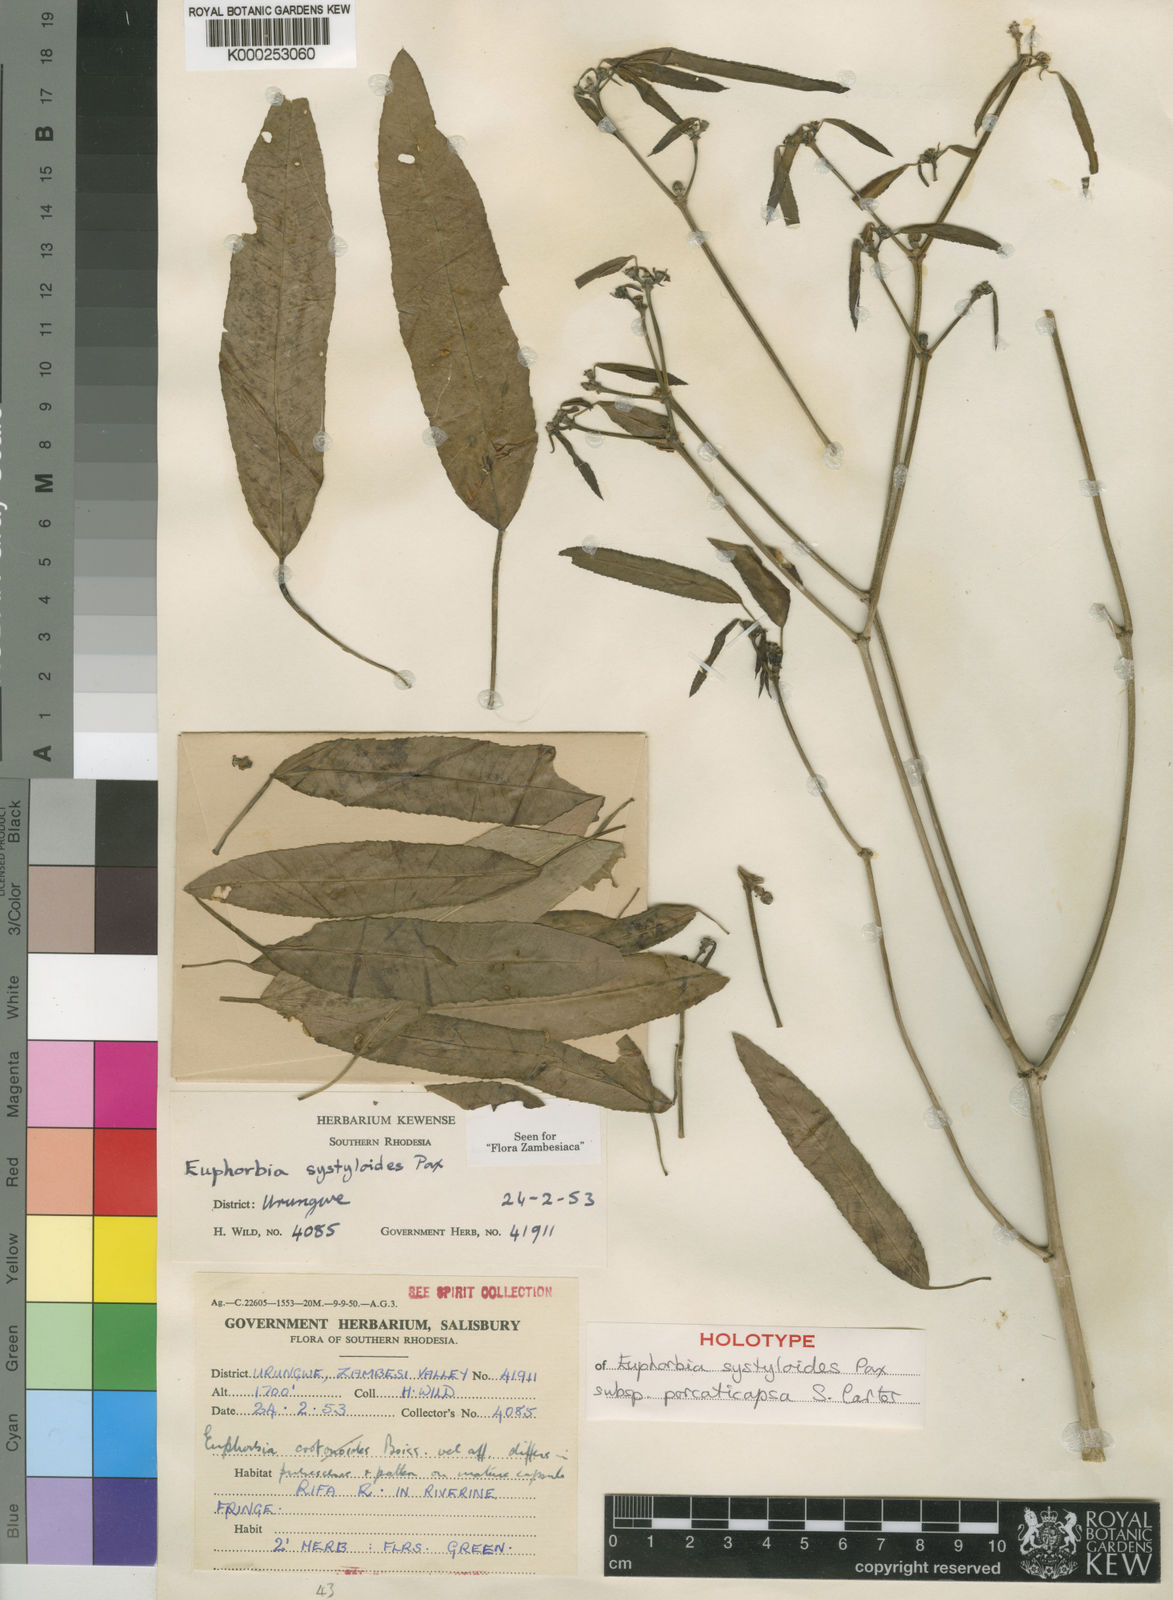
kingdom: Plantae
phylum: Tracheophyta
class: Magnoliopsida
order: Malpighiales
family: Euphorbiaceae
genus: Euphorbia
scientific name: Euphorbia systyloides
